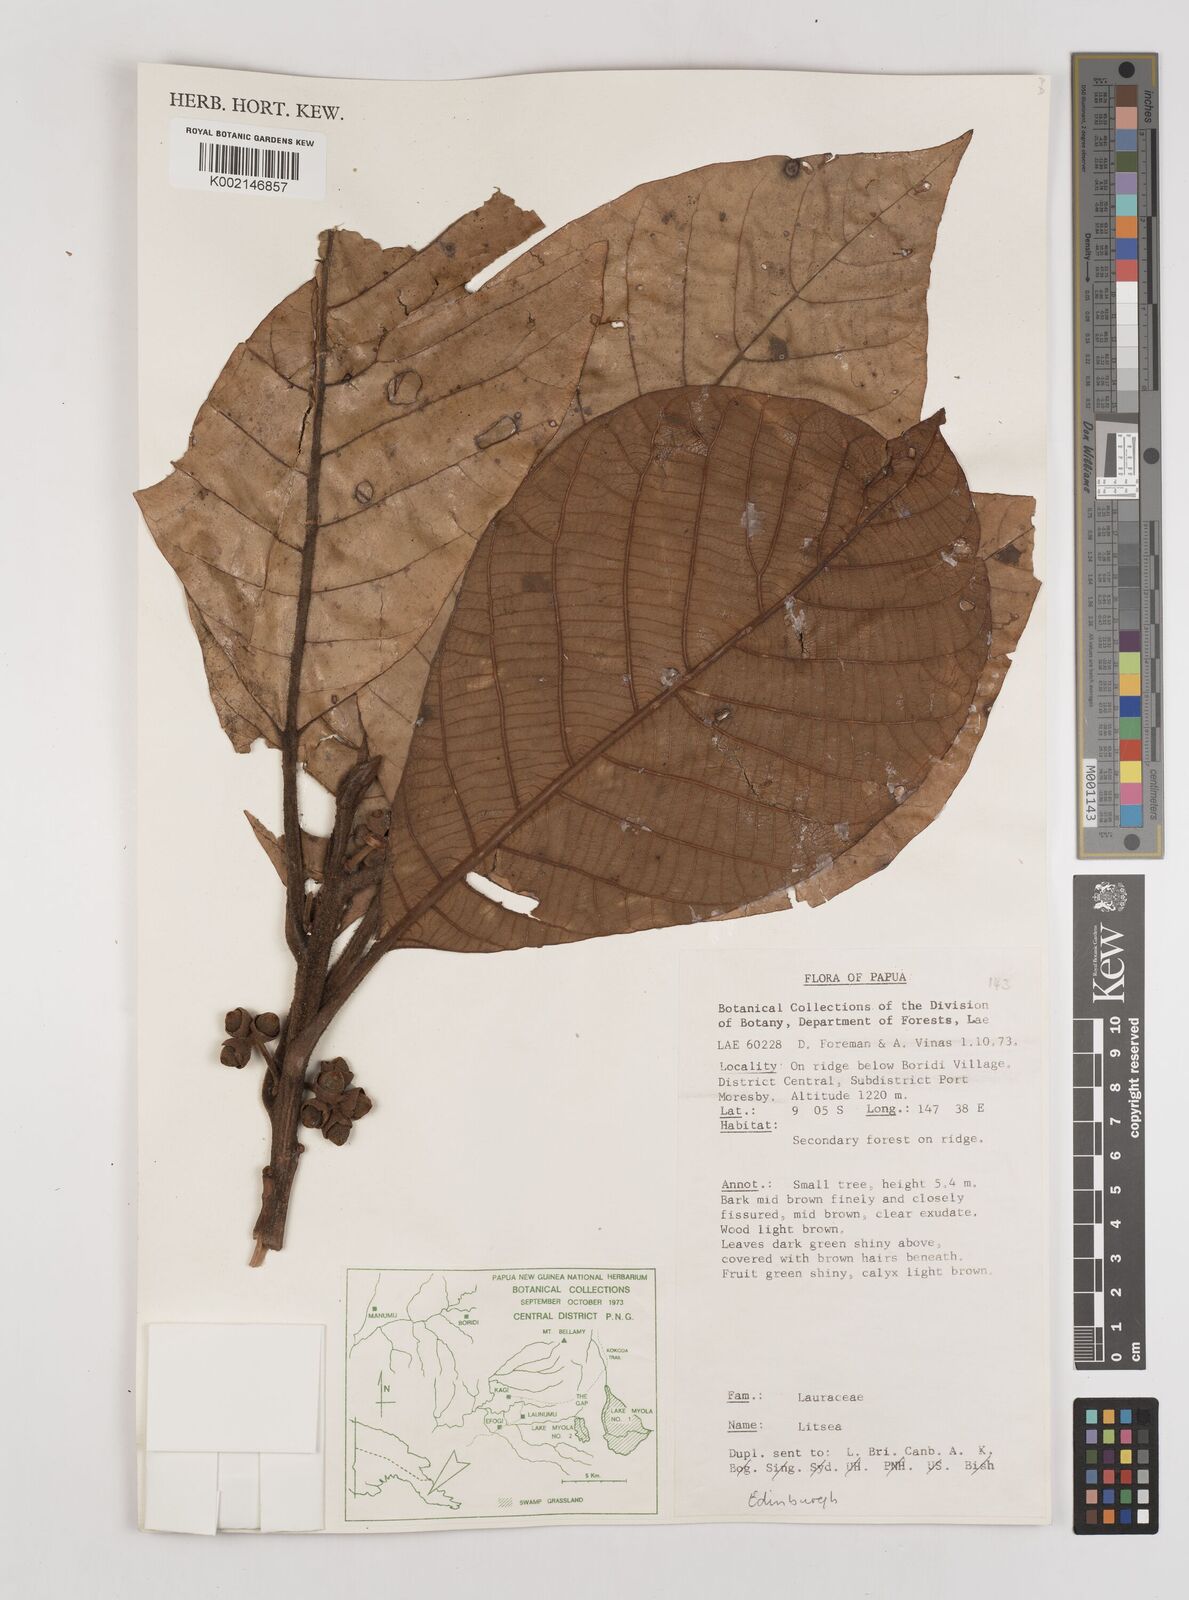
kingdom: Plantae
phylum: Tracheophyta
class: Magnoliopsida
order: Laurales
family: Lauraceae
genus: Litsea
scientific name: Litsea
